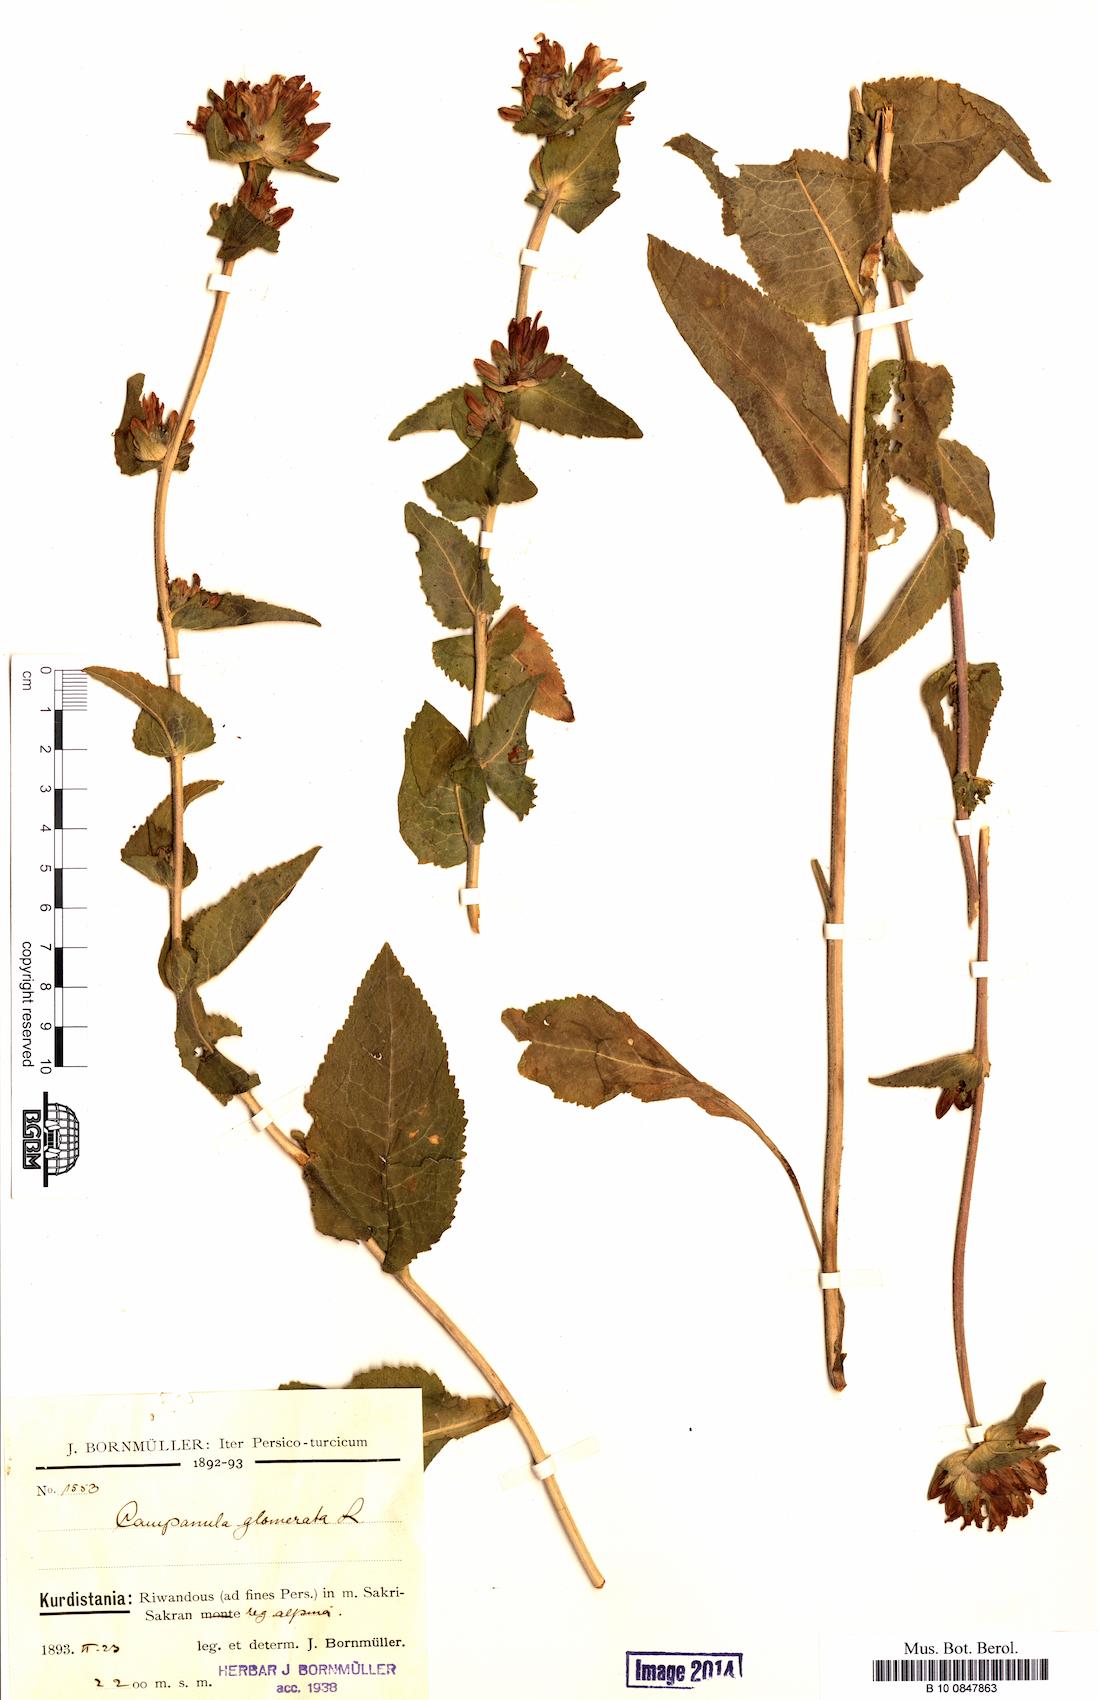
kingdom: Plantae
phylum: Tracheophyta
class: Magnoliopsida
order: Asterales
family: Campanulaceae
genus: Campanula
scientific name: Campanula glomerata
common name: Clustered bellflower
